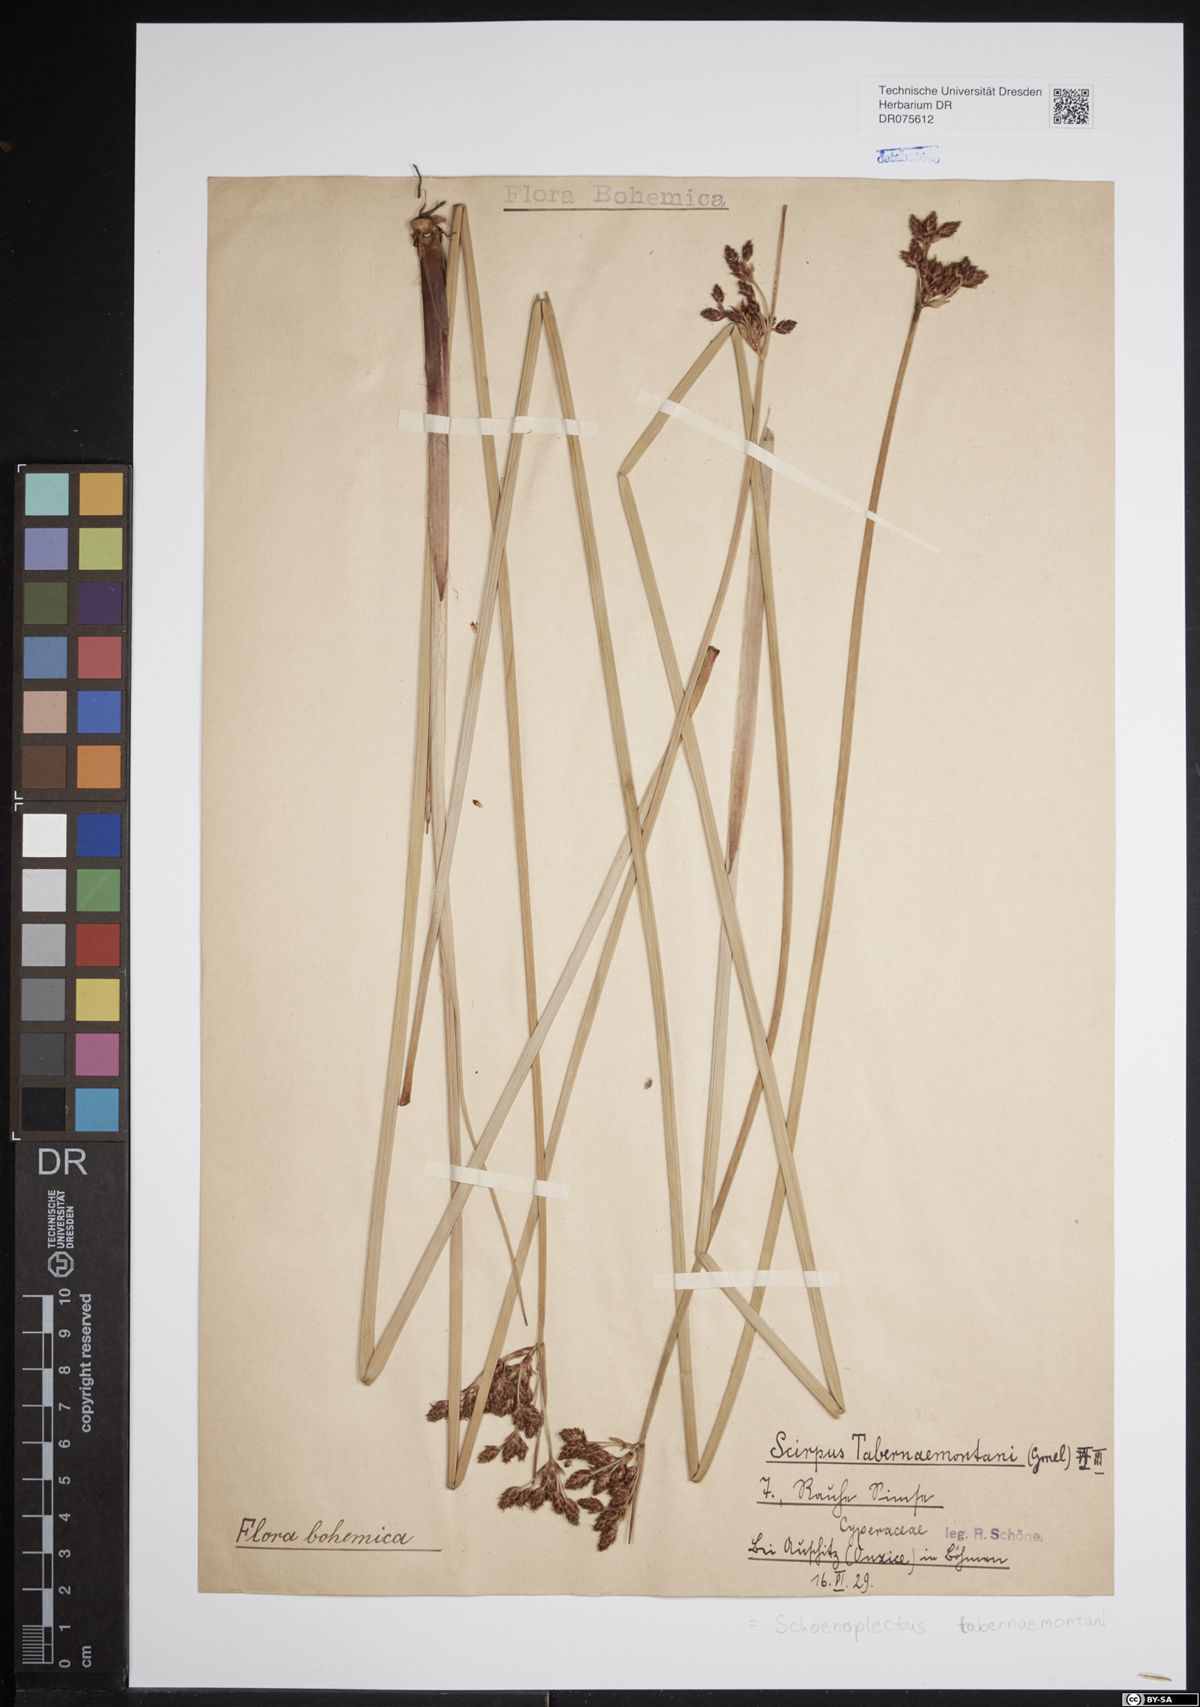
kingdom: Plantae
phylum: Tracheophyta
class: Liliopsida
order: Poales
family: Cyperaceae
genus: Schoenoplectus
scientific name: Schoenoplectus tabernaemontani
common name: Grey club-rush
